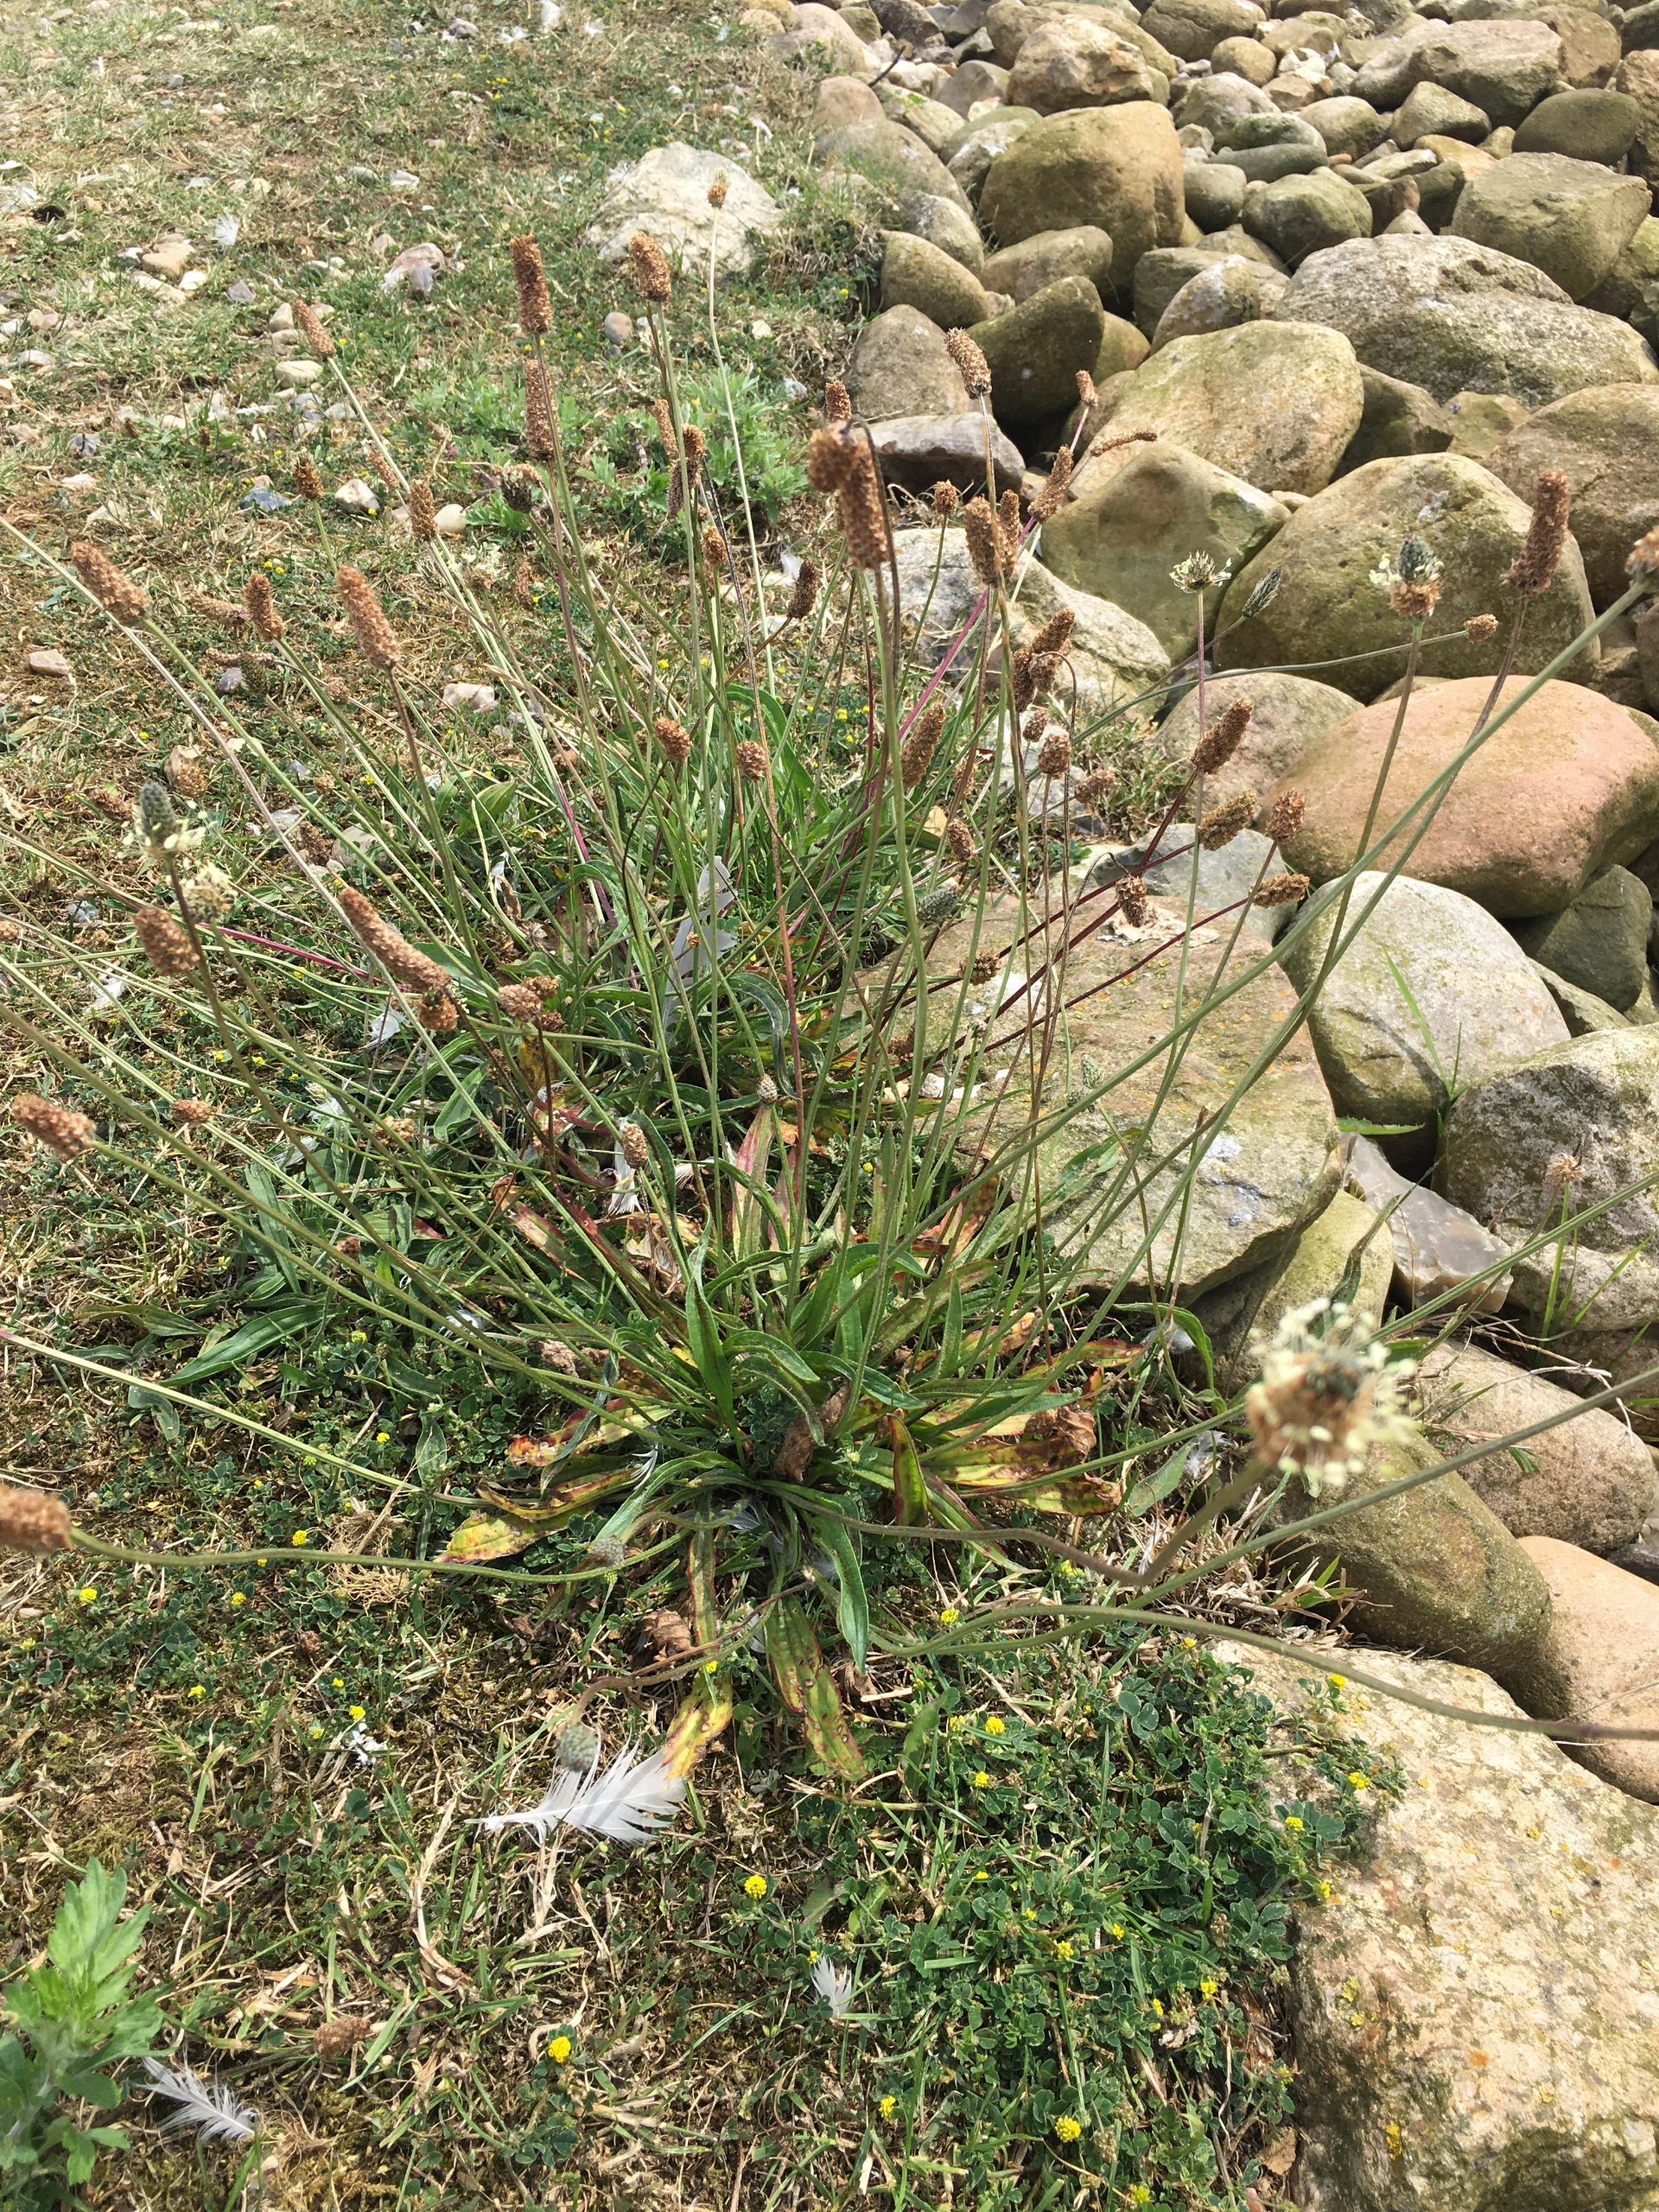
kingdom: Plantae
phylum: Tracheophyta
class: Magnoliopsida
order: Lamiales
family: Plantaginaceae
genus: Plantago
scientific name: Plantago lanceolata
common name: Lancet-vejbred
